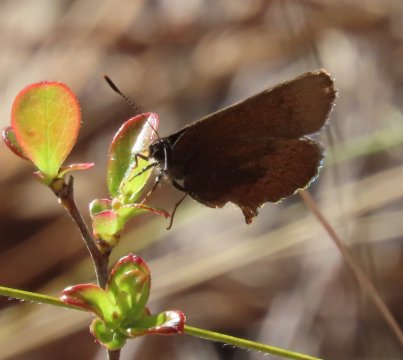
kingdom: Animalia
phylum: Arthropoda
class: Insecta
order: Lepidoptera
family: Lycaenidae
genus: Incisalia
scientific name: Incisalia irioides
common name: Brown Elfin
